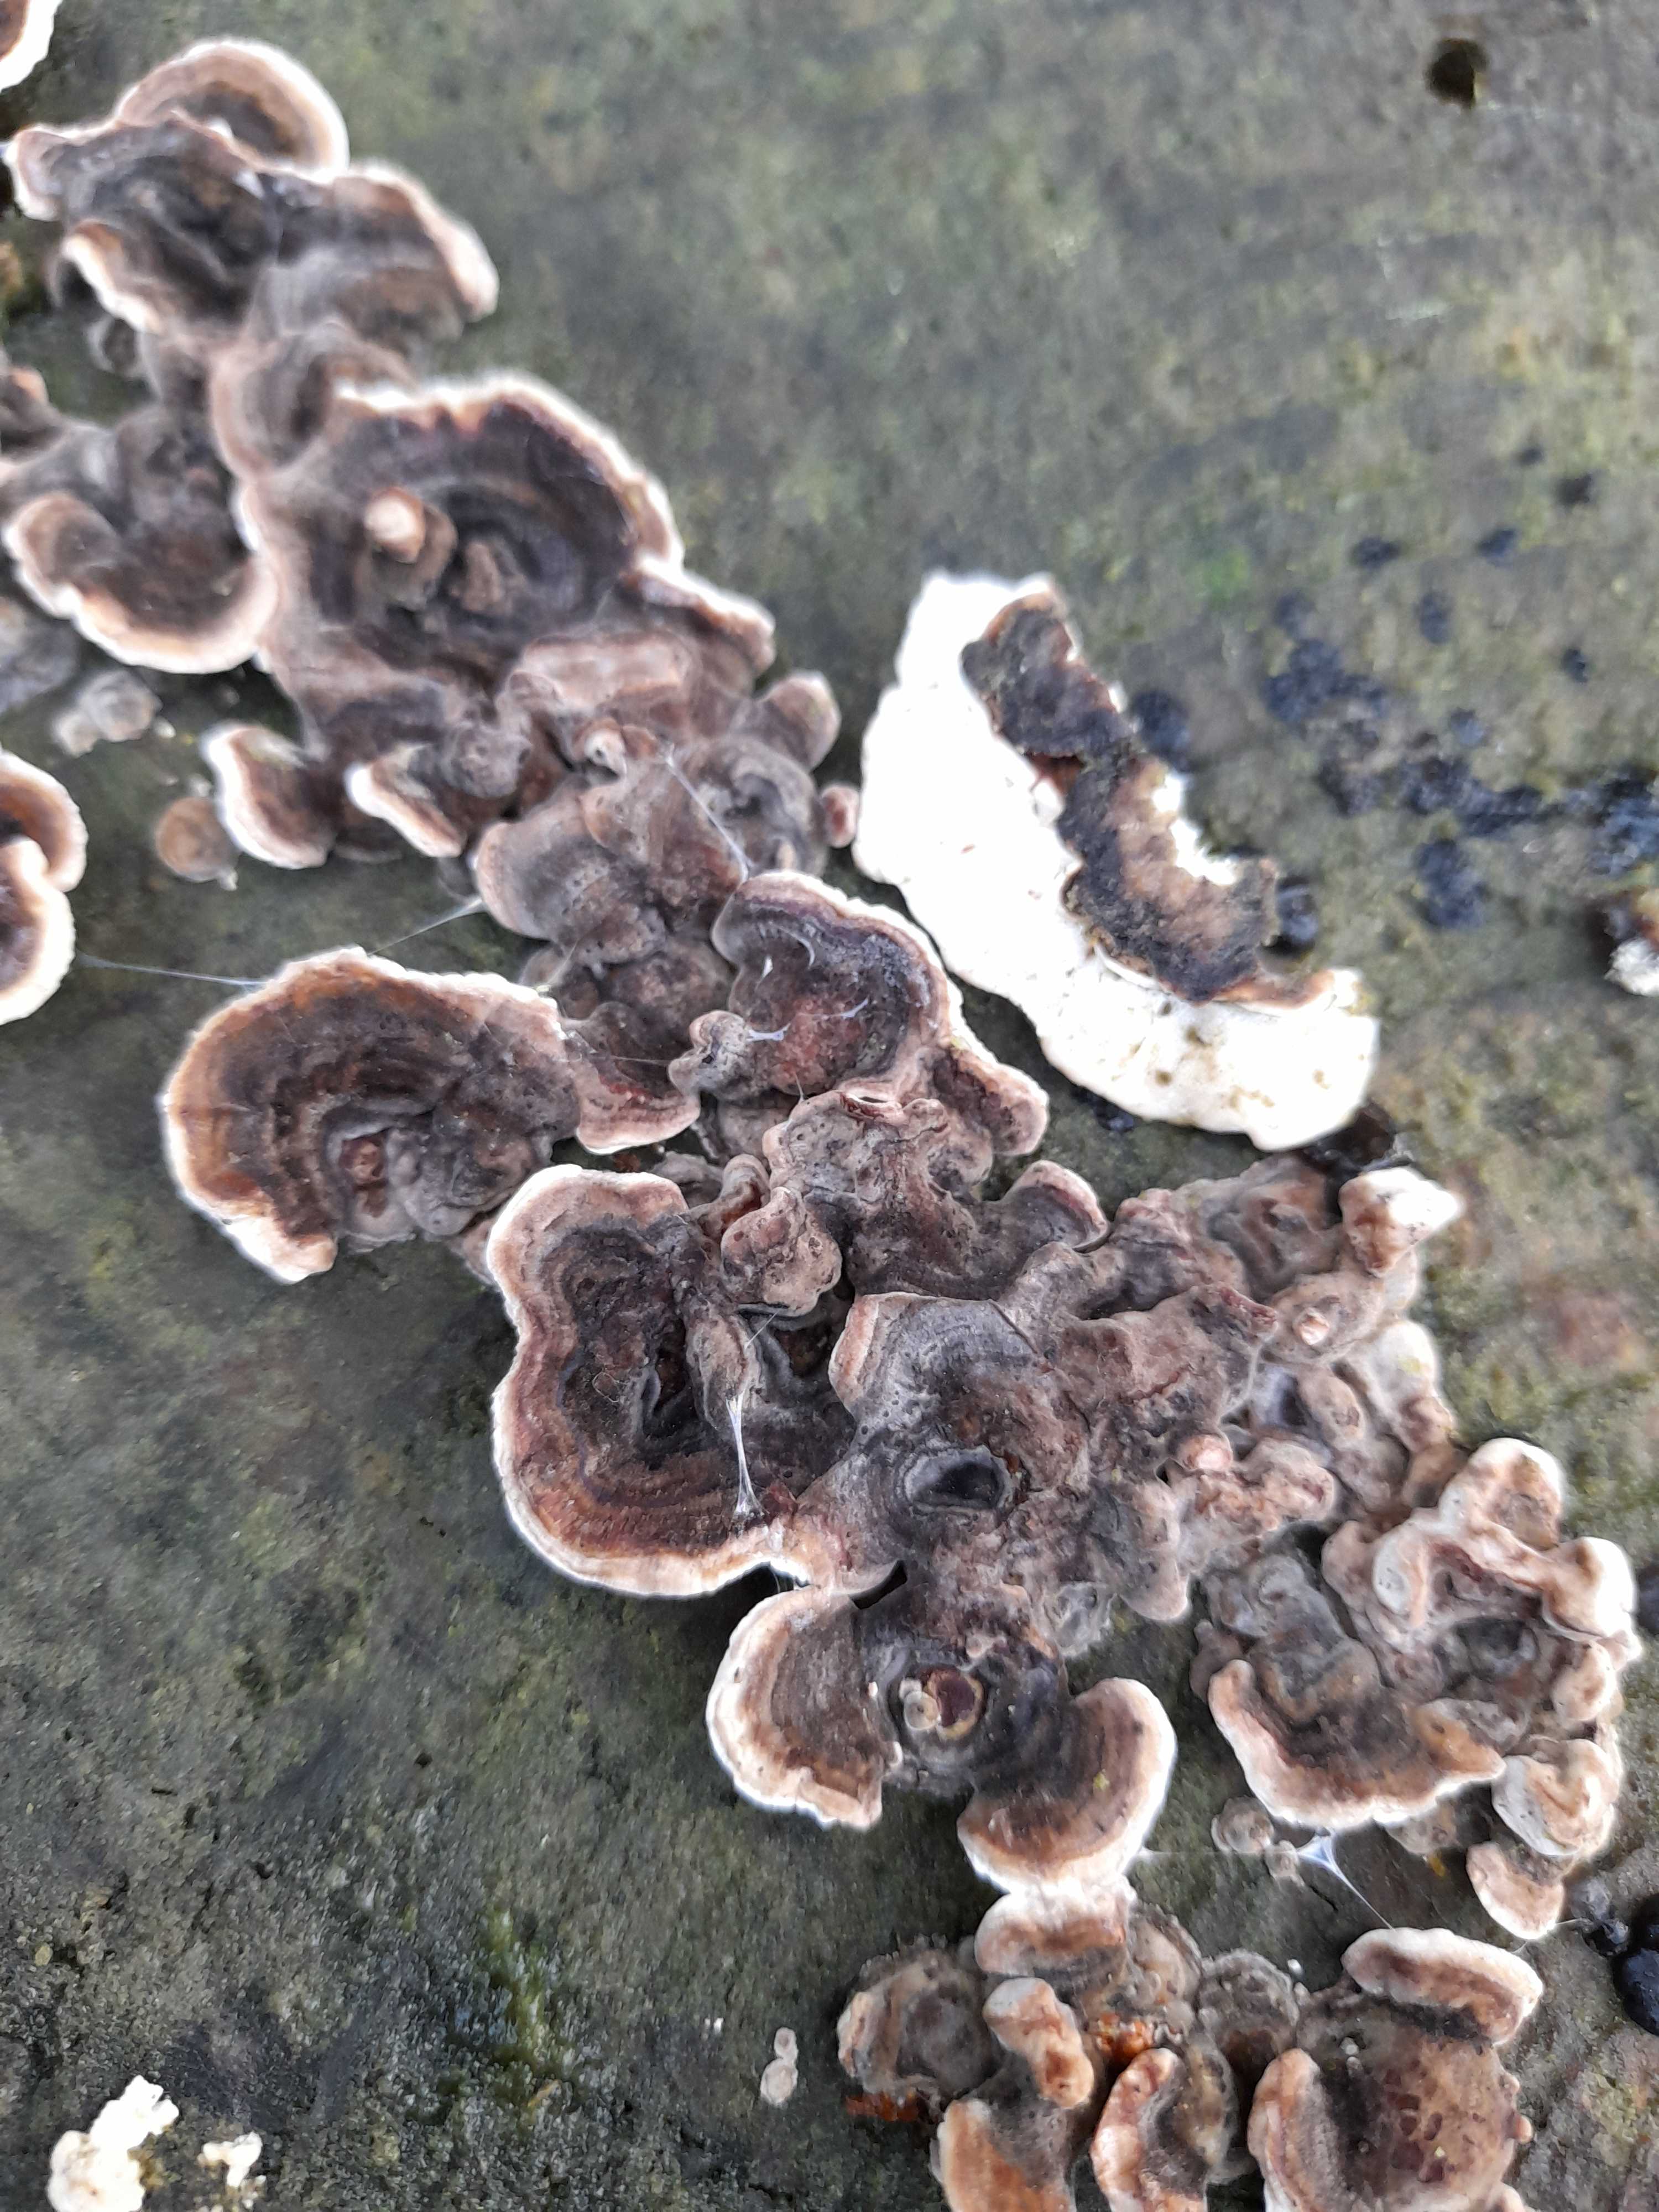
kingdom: Fungi
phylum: Basidiomycota
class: Agaricomycetes
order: Polyporales
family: Polyporaceae
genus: Trametes
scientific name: Trametes versicolor
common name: broget læderporesvamp
